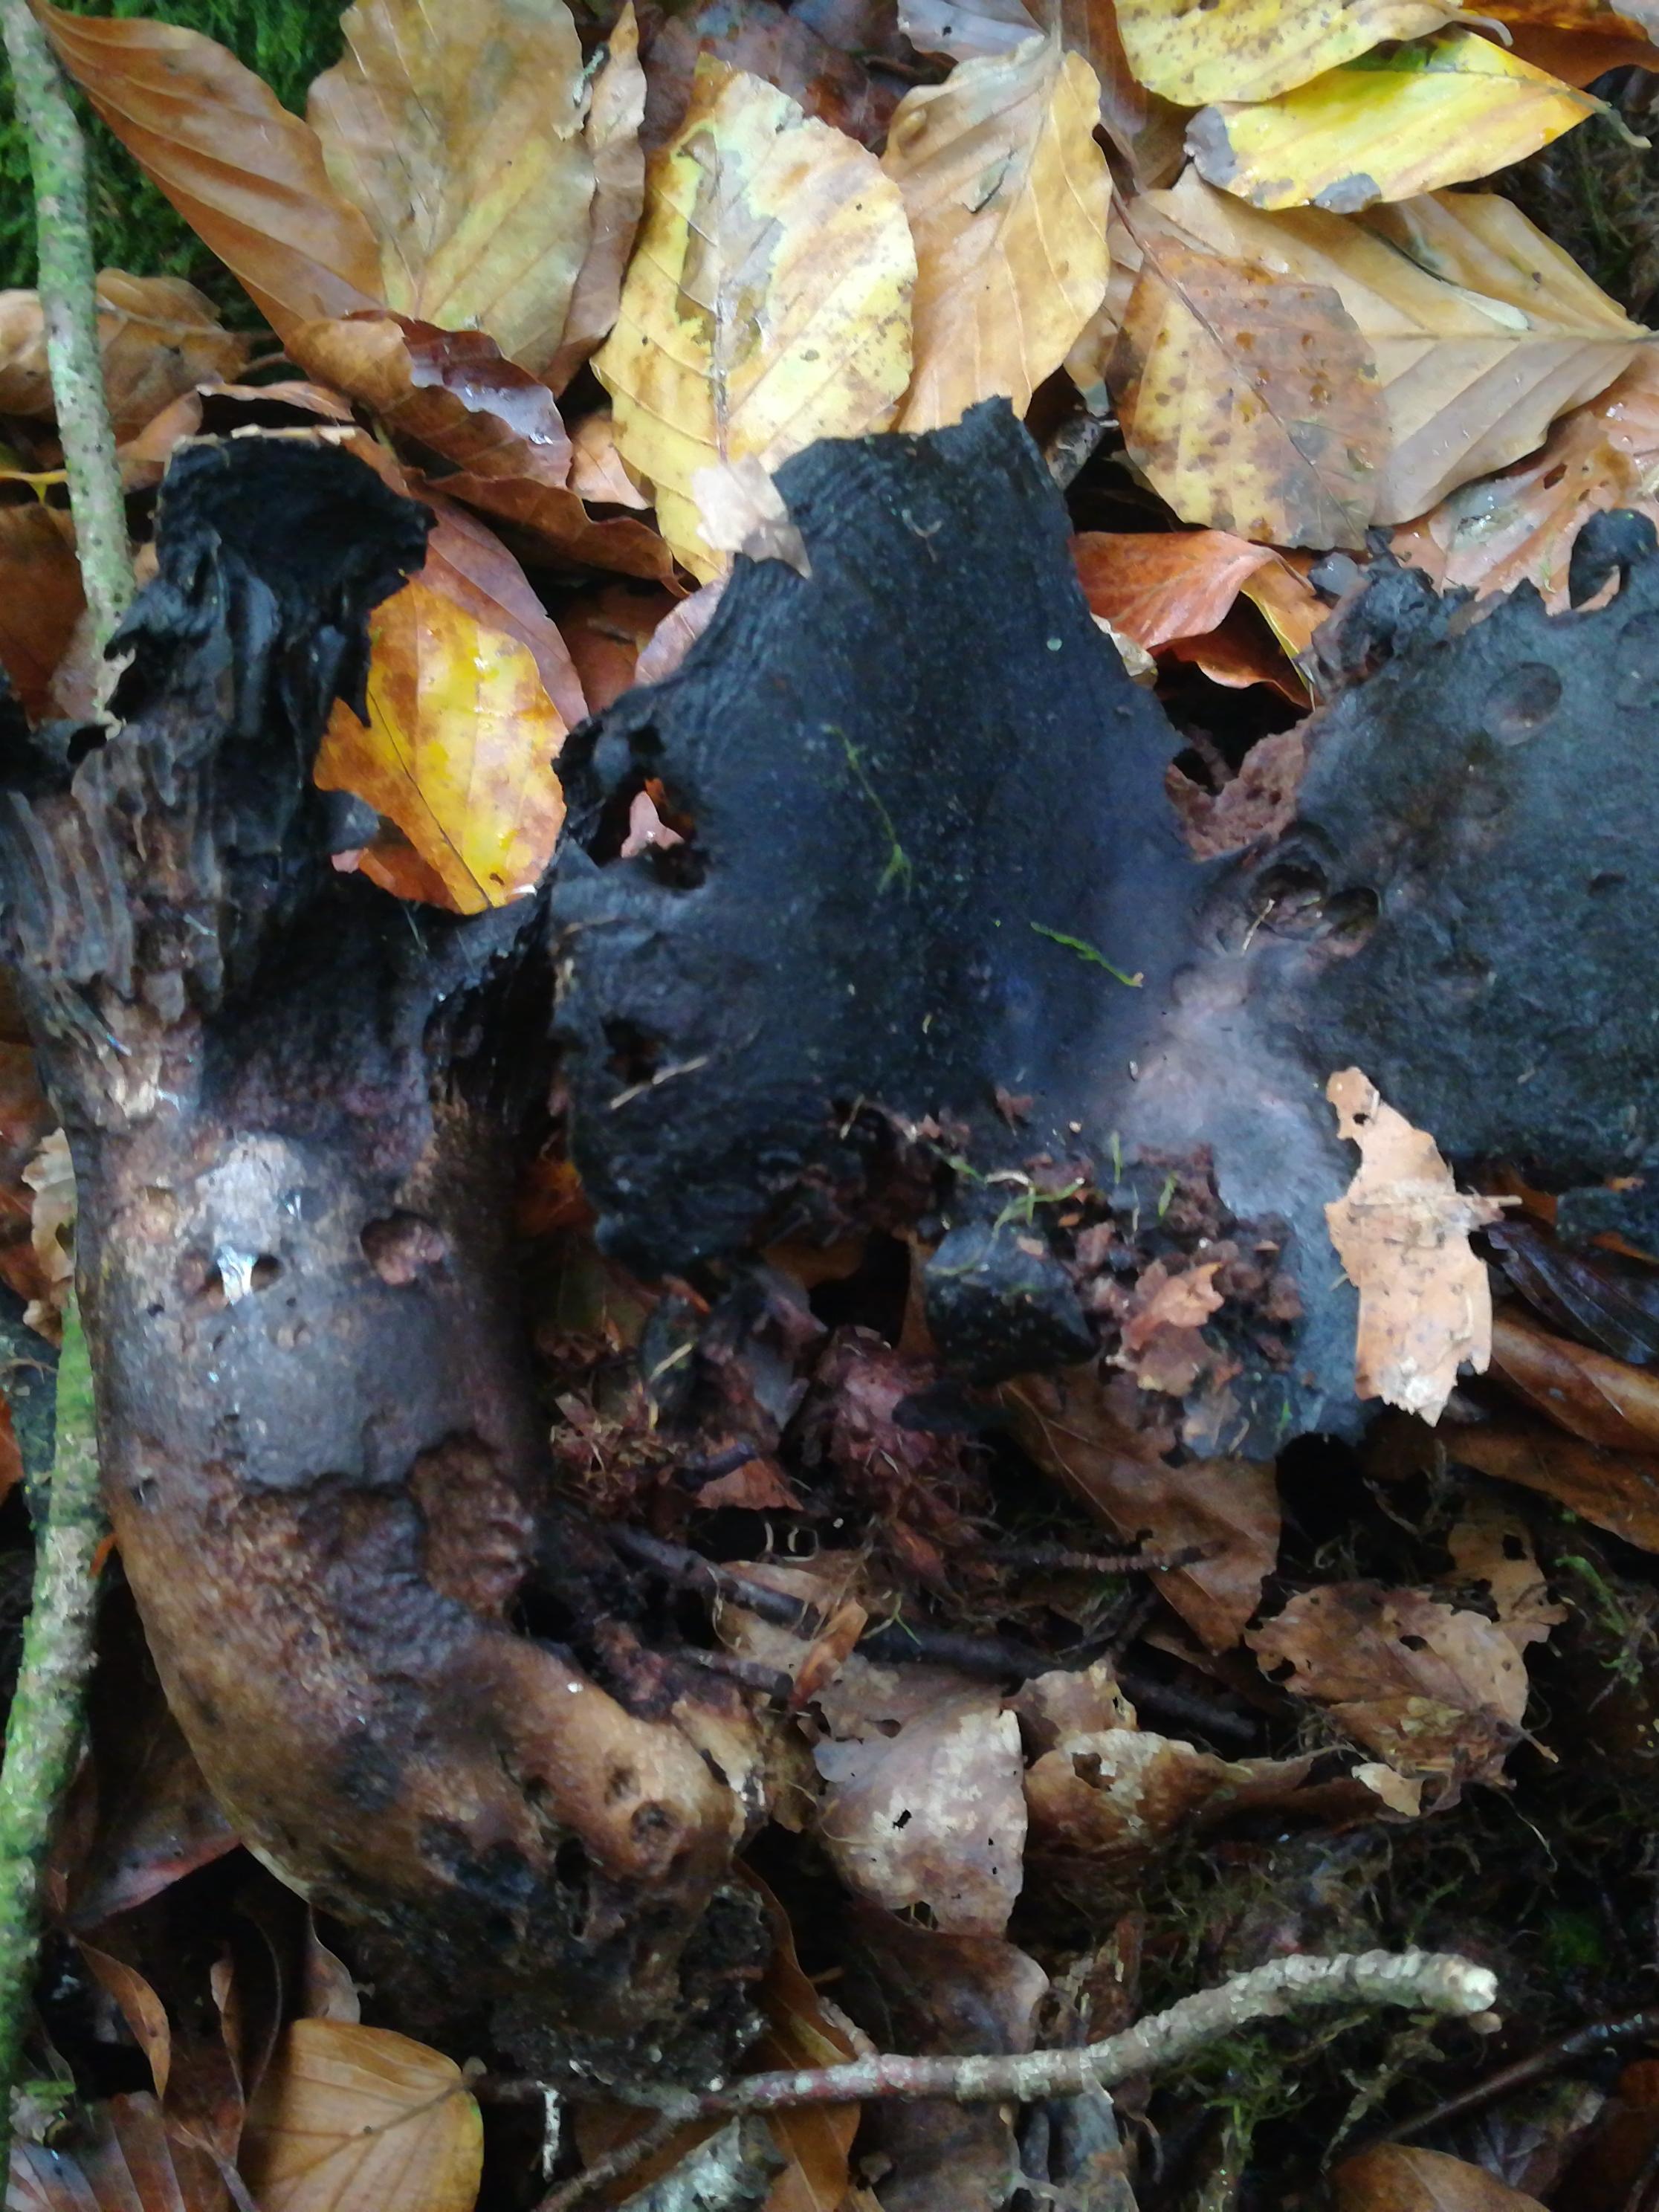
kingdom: Fungi
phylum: Basidiomycota
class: Agaricomycetes
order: Russulales
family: Russulaceae
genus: Russula
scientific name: Russula adusta
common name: sværtende skørhat
